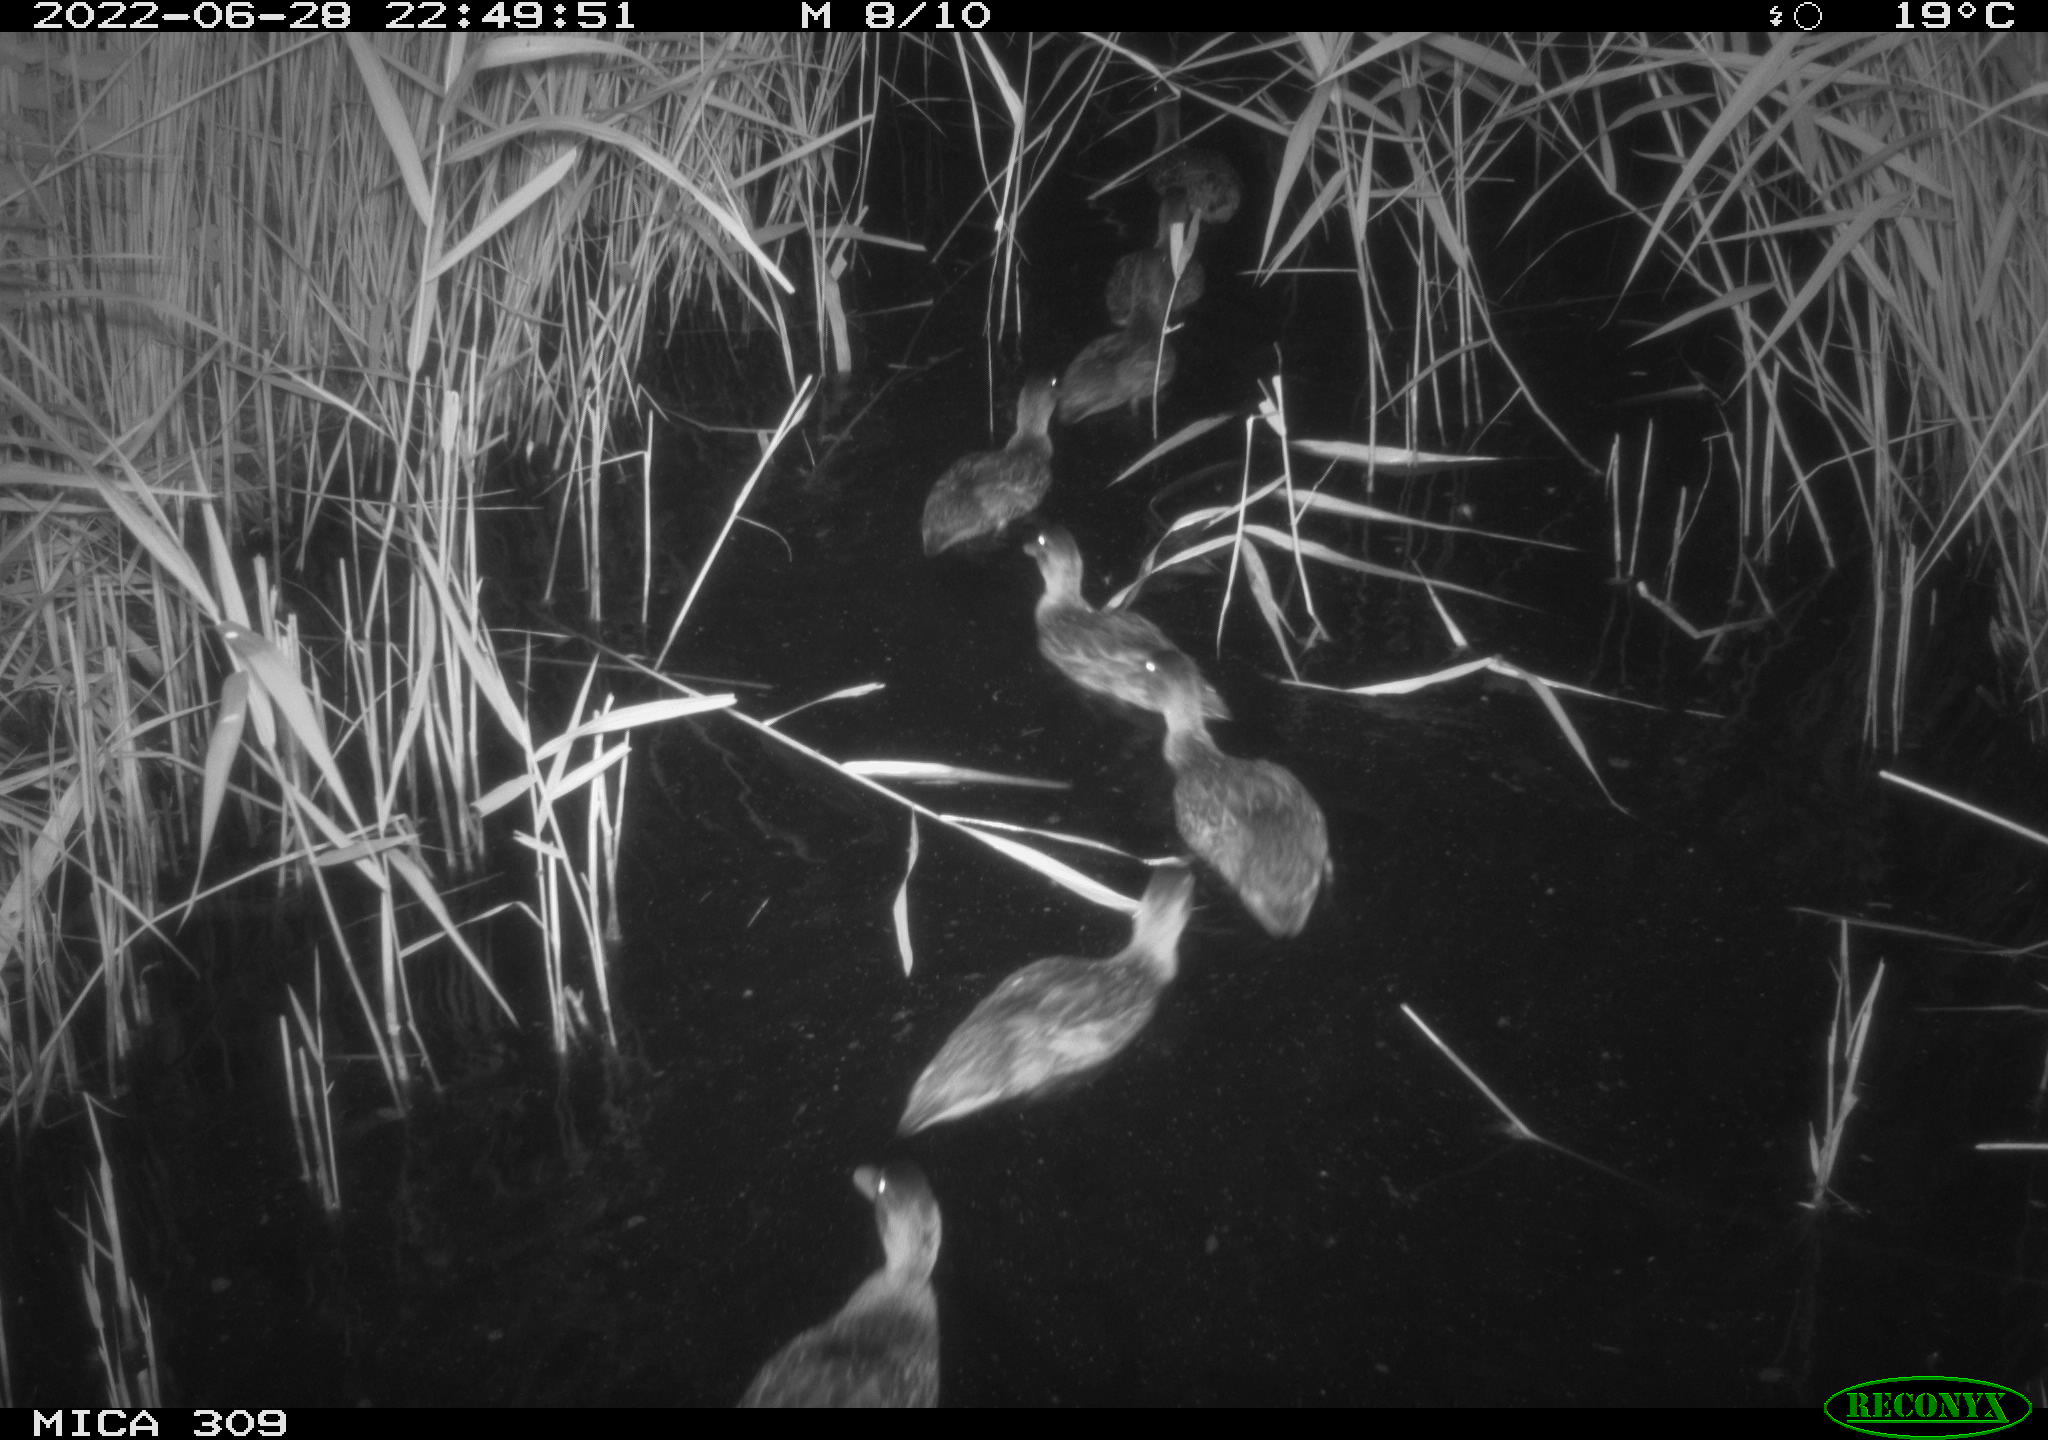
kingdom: Animalia
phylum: Chordata
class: Aves
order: Gruiformes
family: Rallidae
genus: Gallinula
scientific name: Gallinula chloropus
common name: Common moorhen
